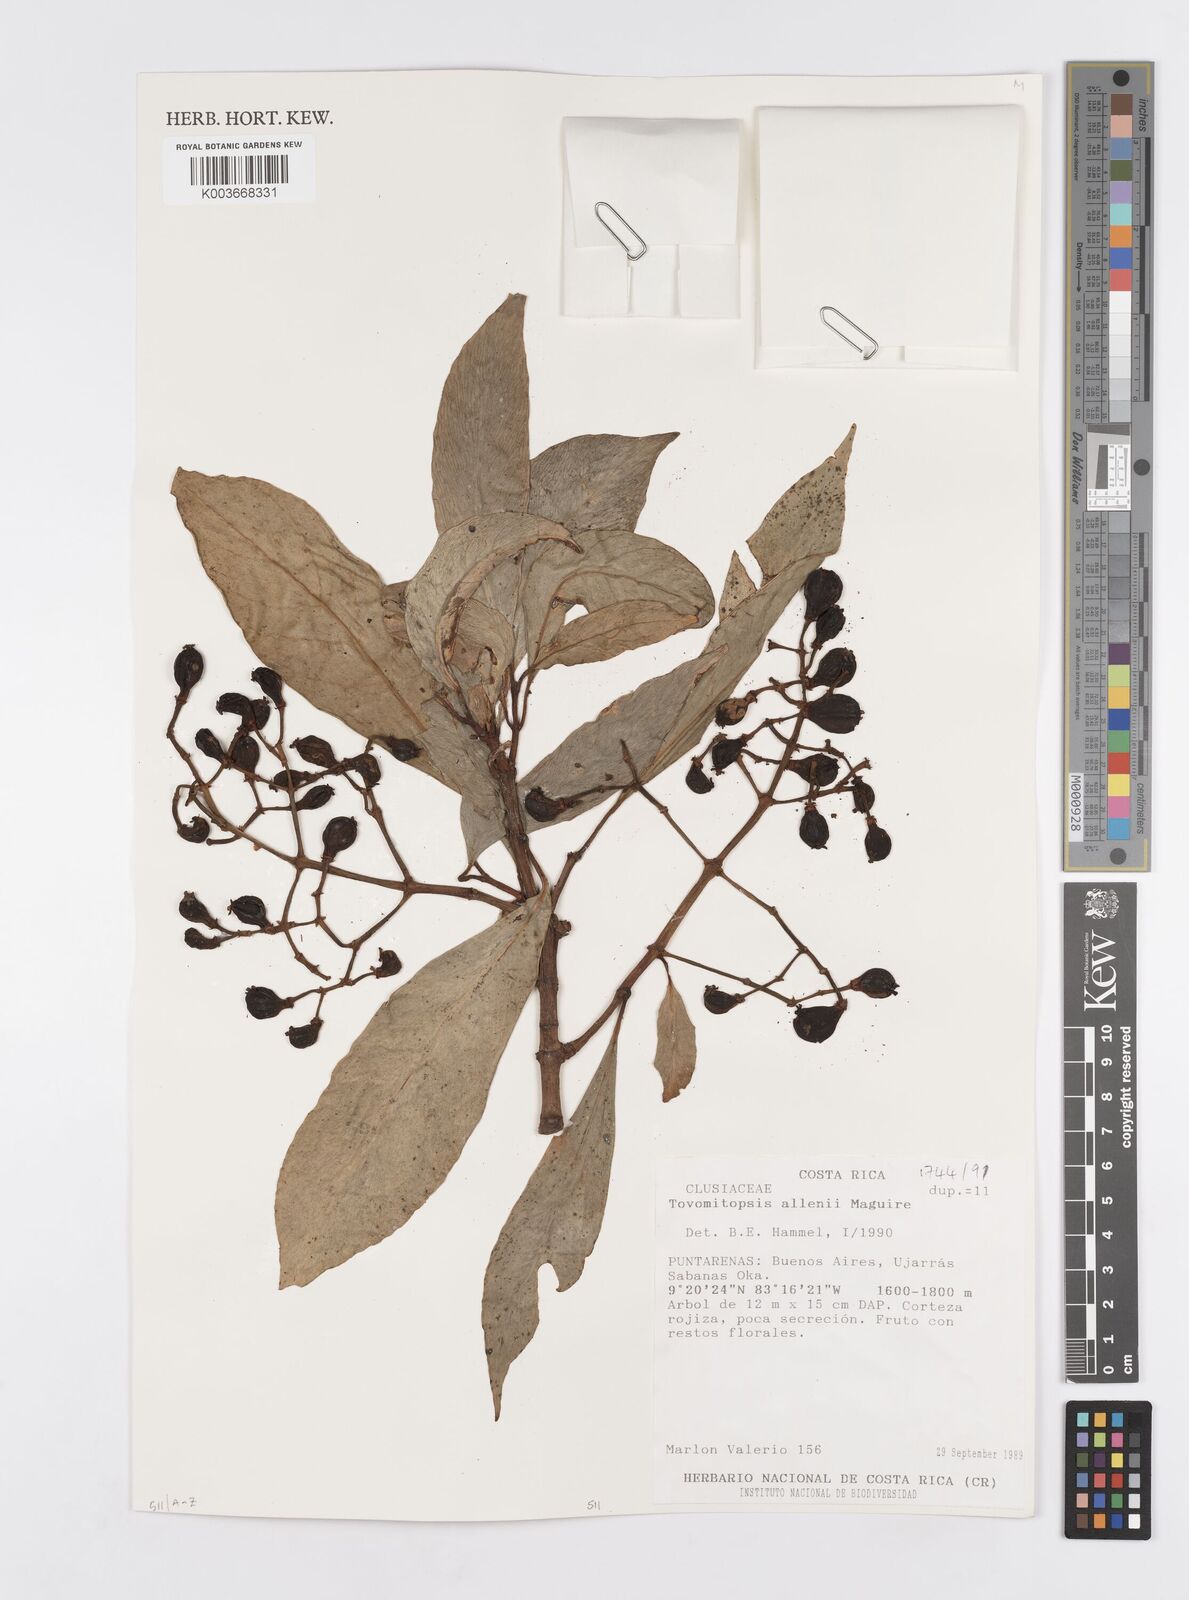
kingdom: Plantae
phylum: Tracheophyta
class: Magnoliopsida
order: Malpighiales
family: Clusiaceae
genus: Chrysochlamys
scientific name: Chrysochlamys allenii
